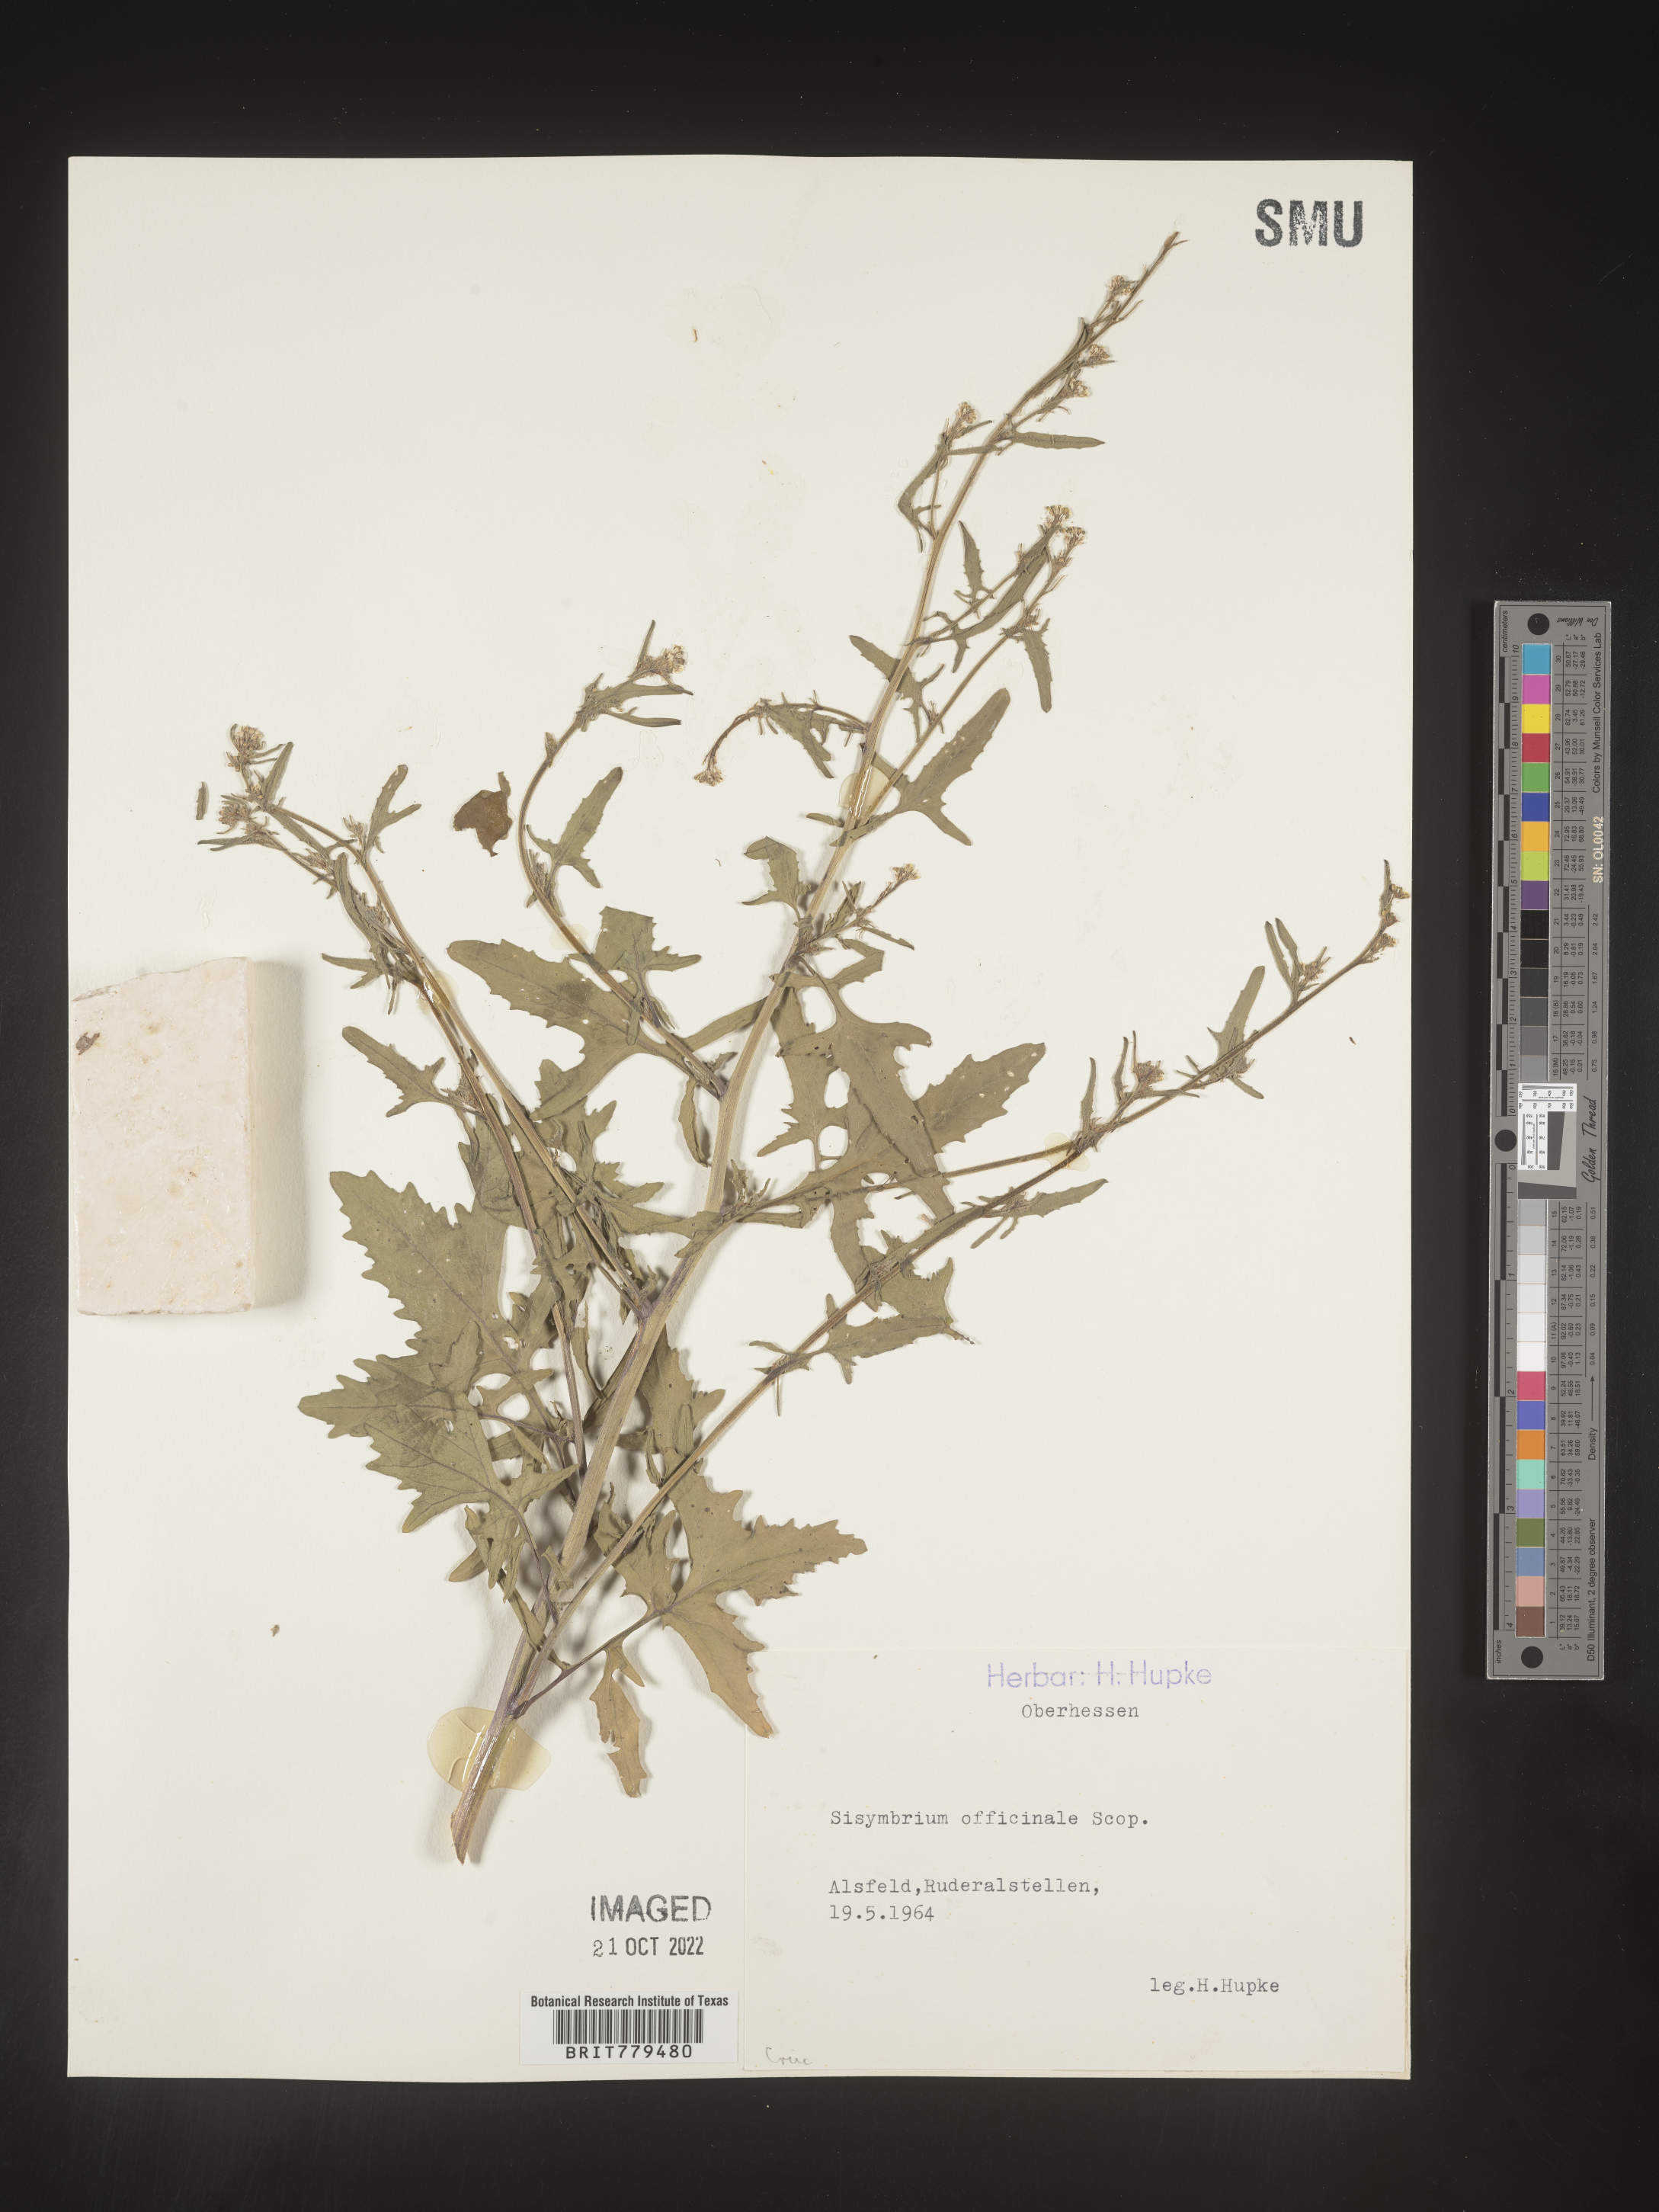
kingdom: Plantae
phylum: Tracheophyta
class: Magnoliopsida
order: Brassicales
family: Brassicaceae
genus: Sisymbrium
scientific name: Sisymbrium
